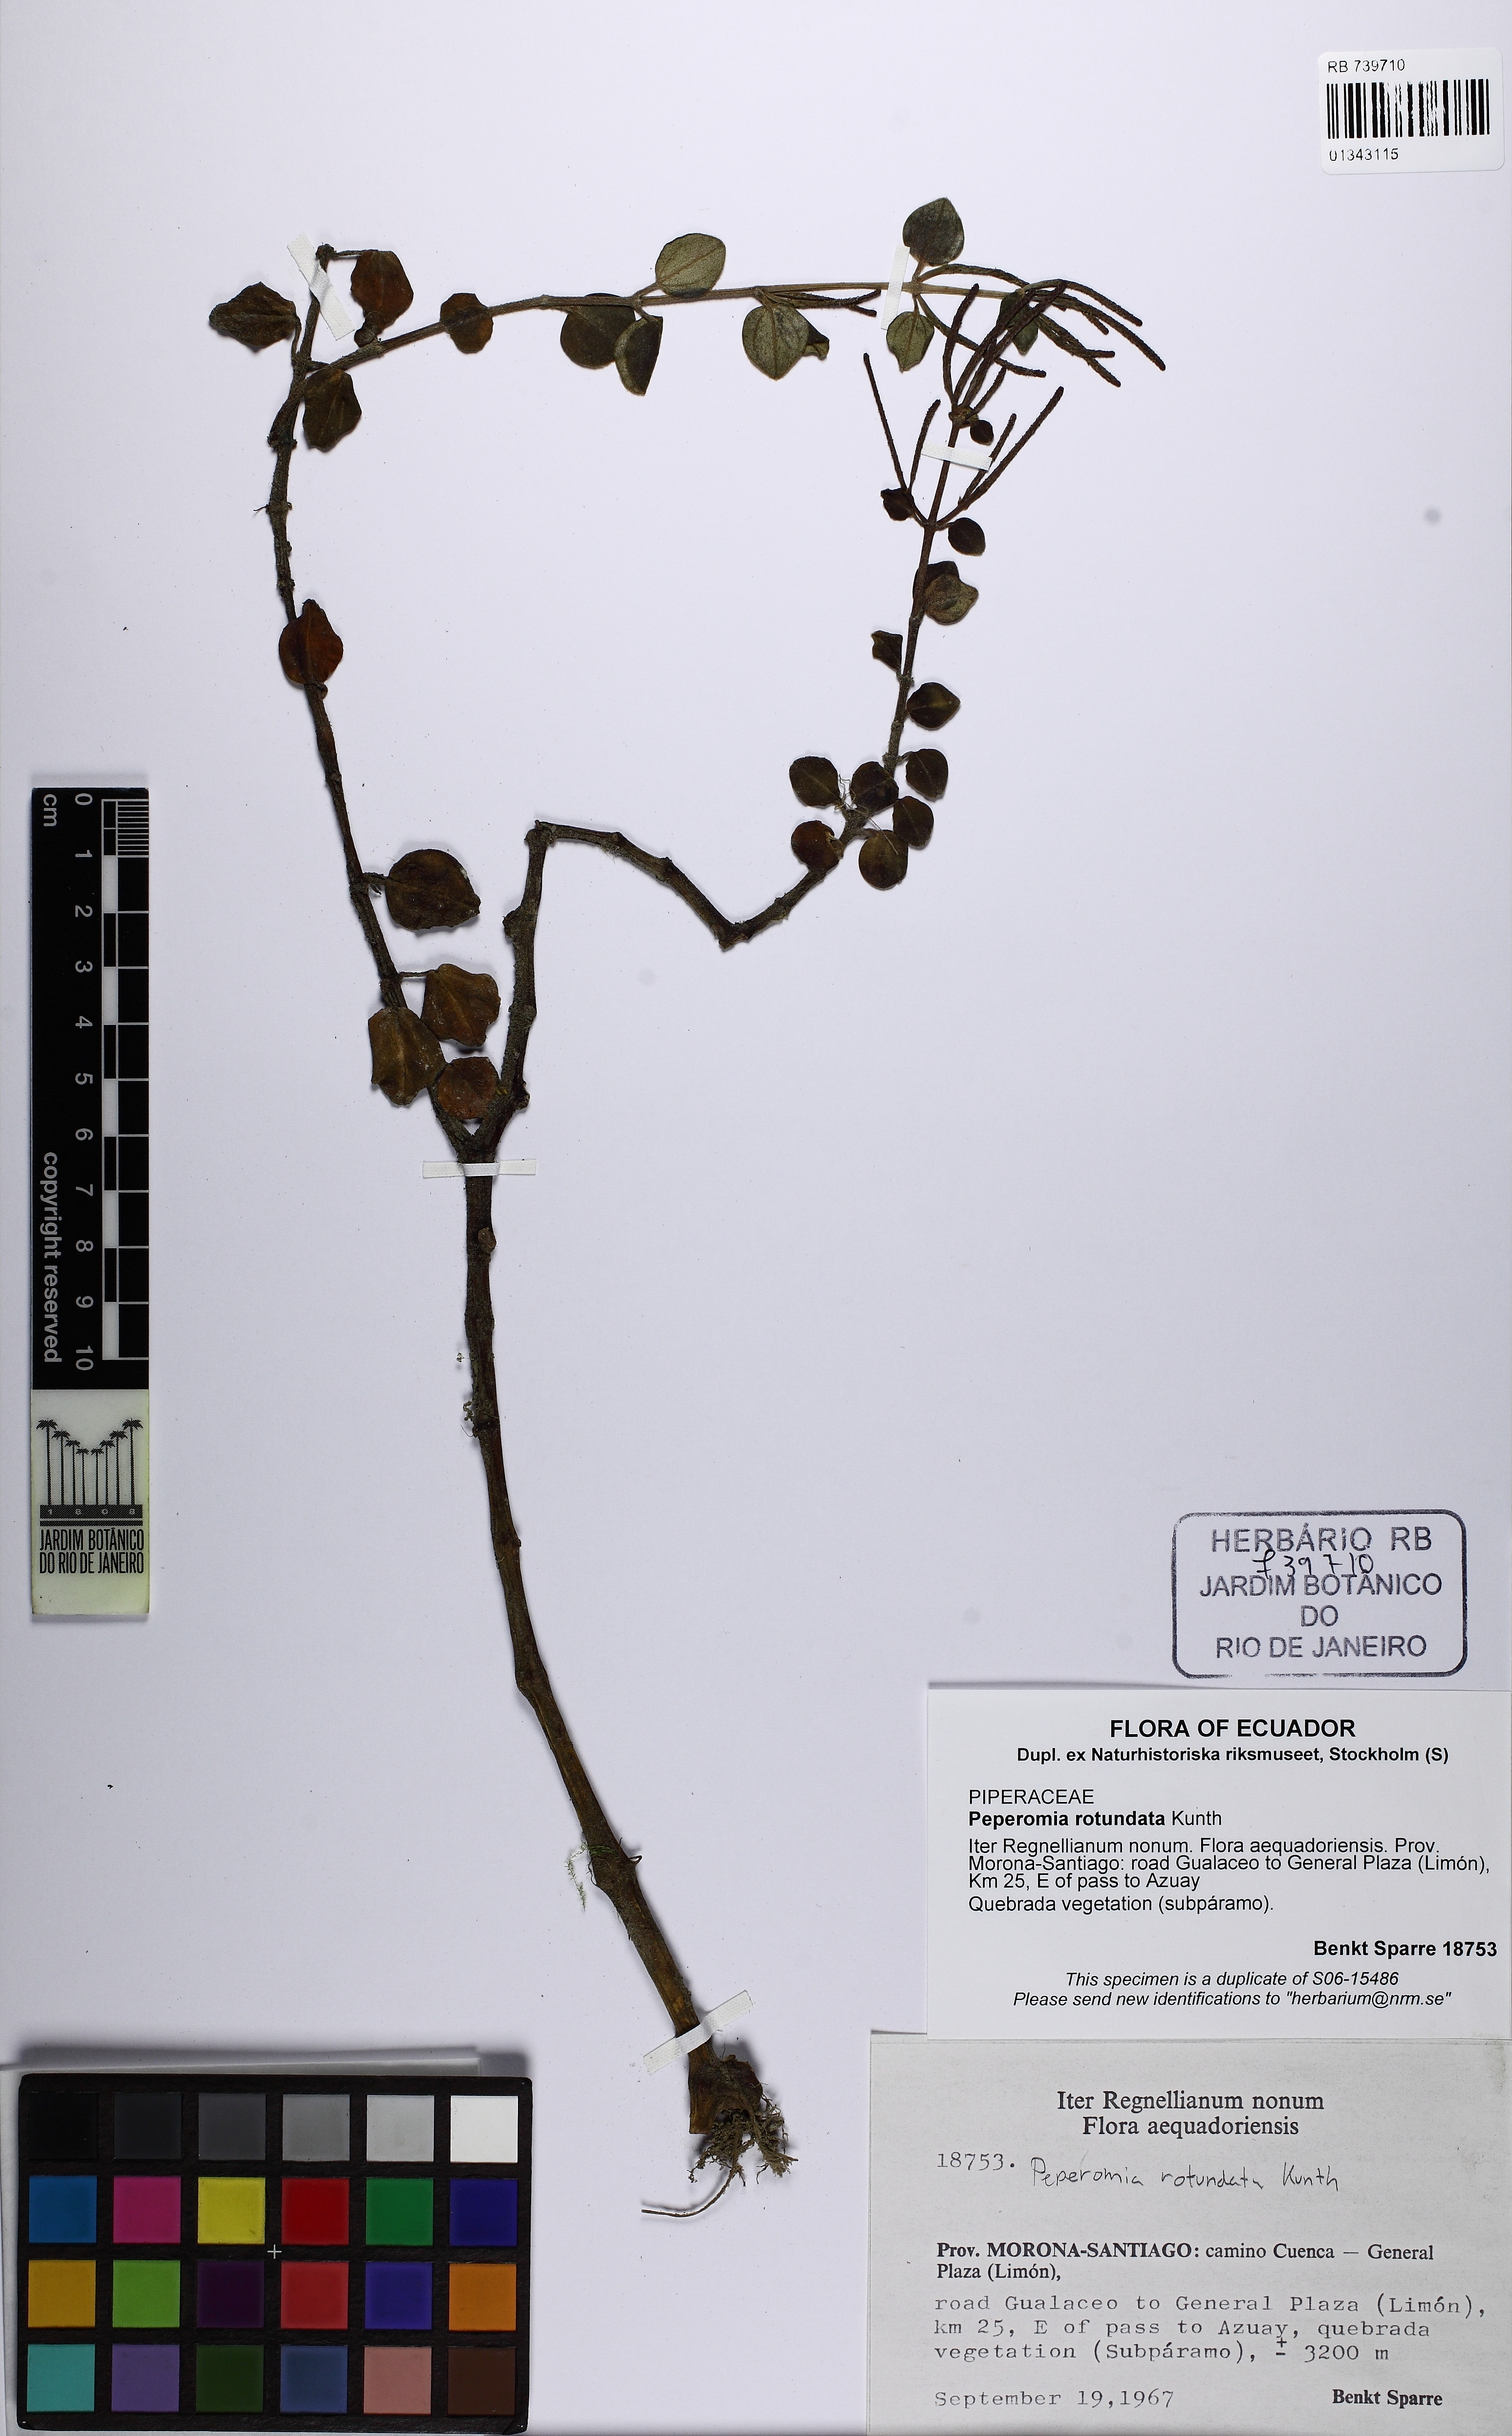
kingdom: Plantae
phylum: Tracheophyta
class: Magnoliopsida
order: Piperales
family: Piperaceae
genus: Peperomia
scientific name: Peperomia rotundata
